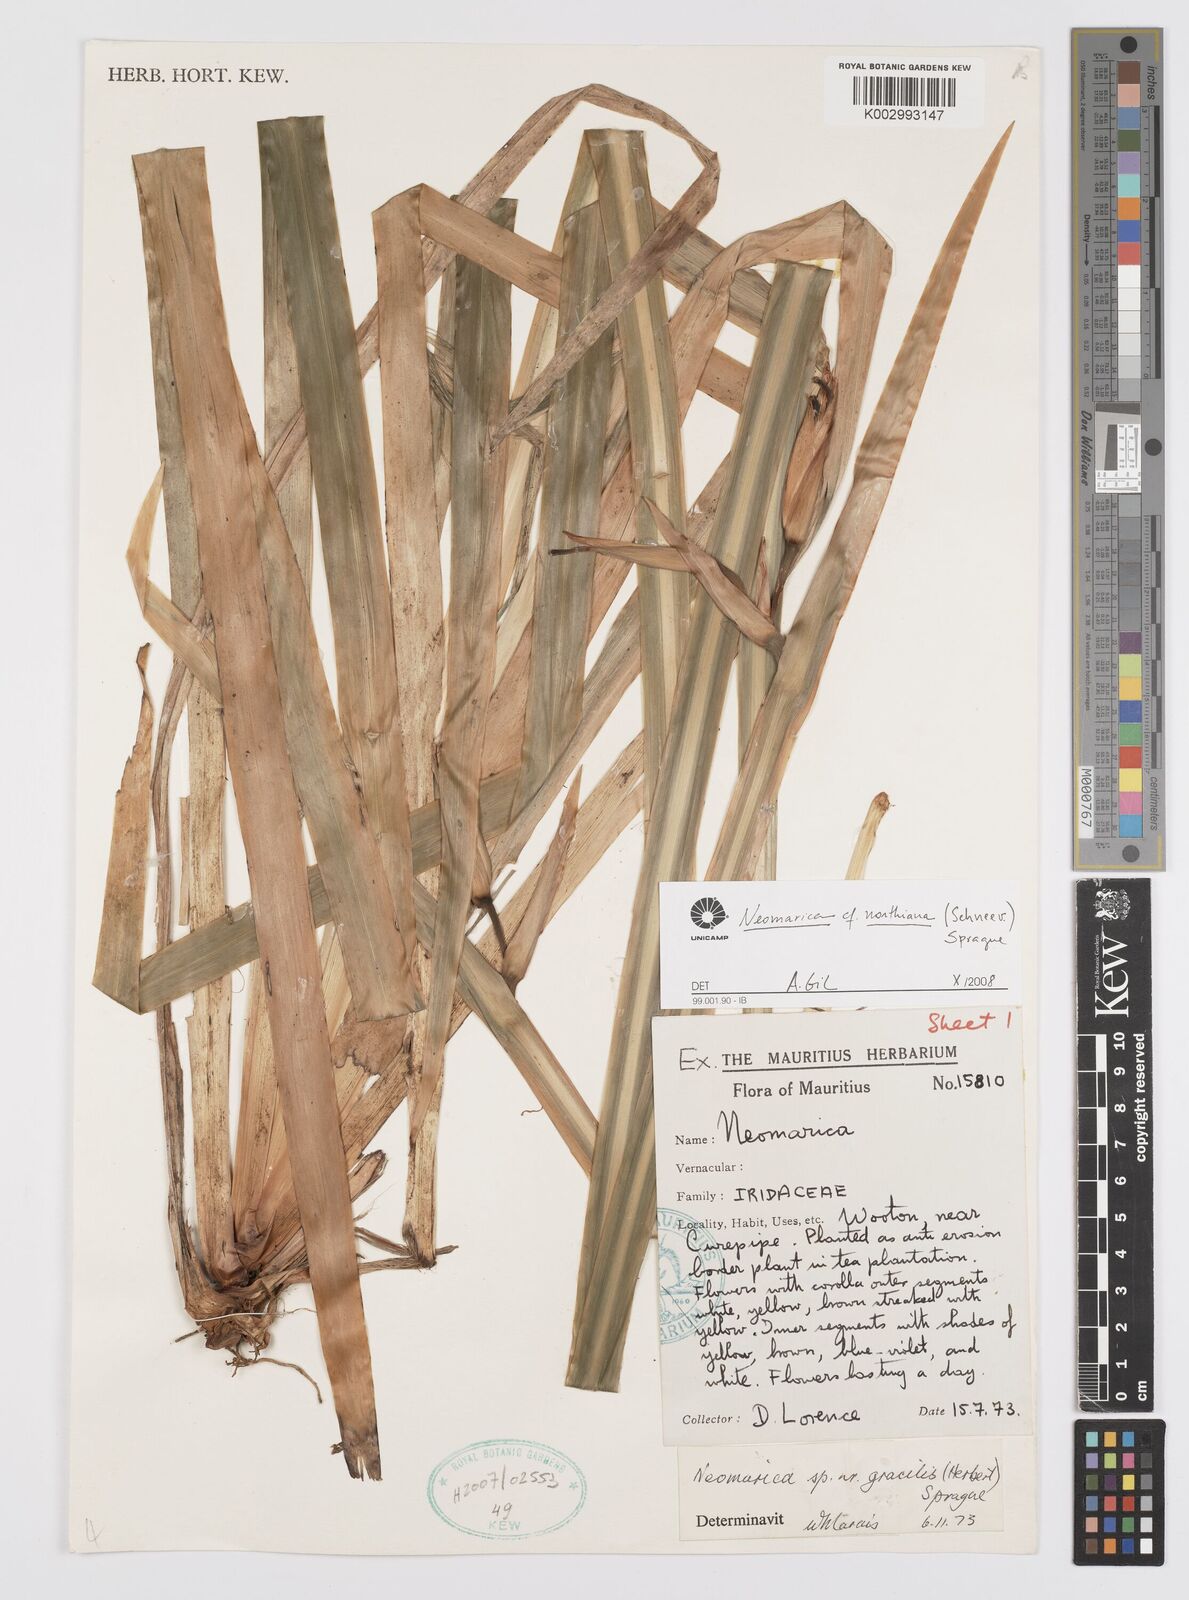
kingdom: Plantae
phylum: Tracheophyta
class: Liliopsida
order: Asparagales
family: Iridaceae
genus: Trimezia
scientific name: Trimezia northiana
